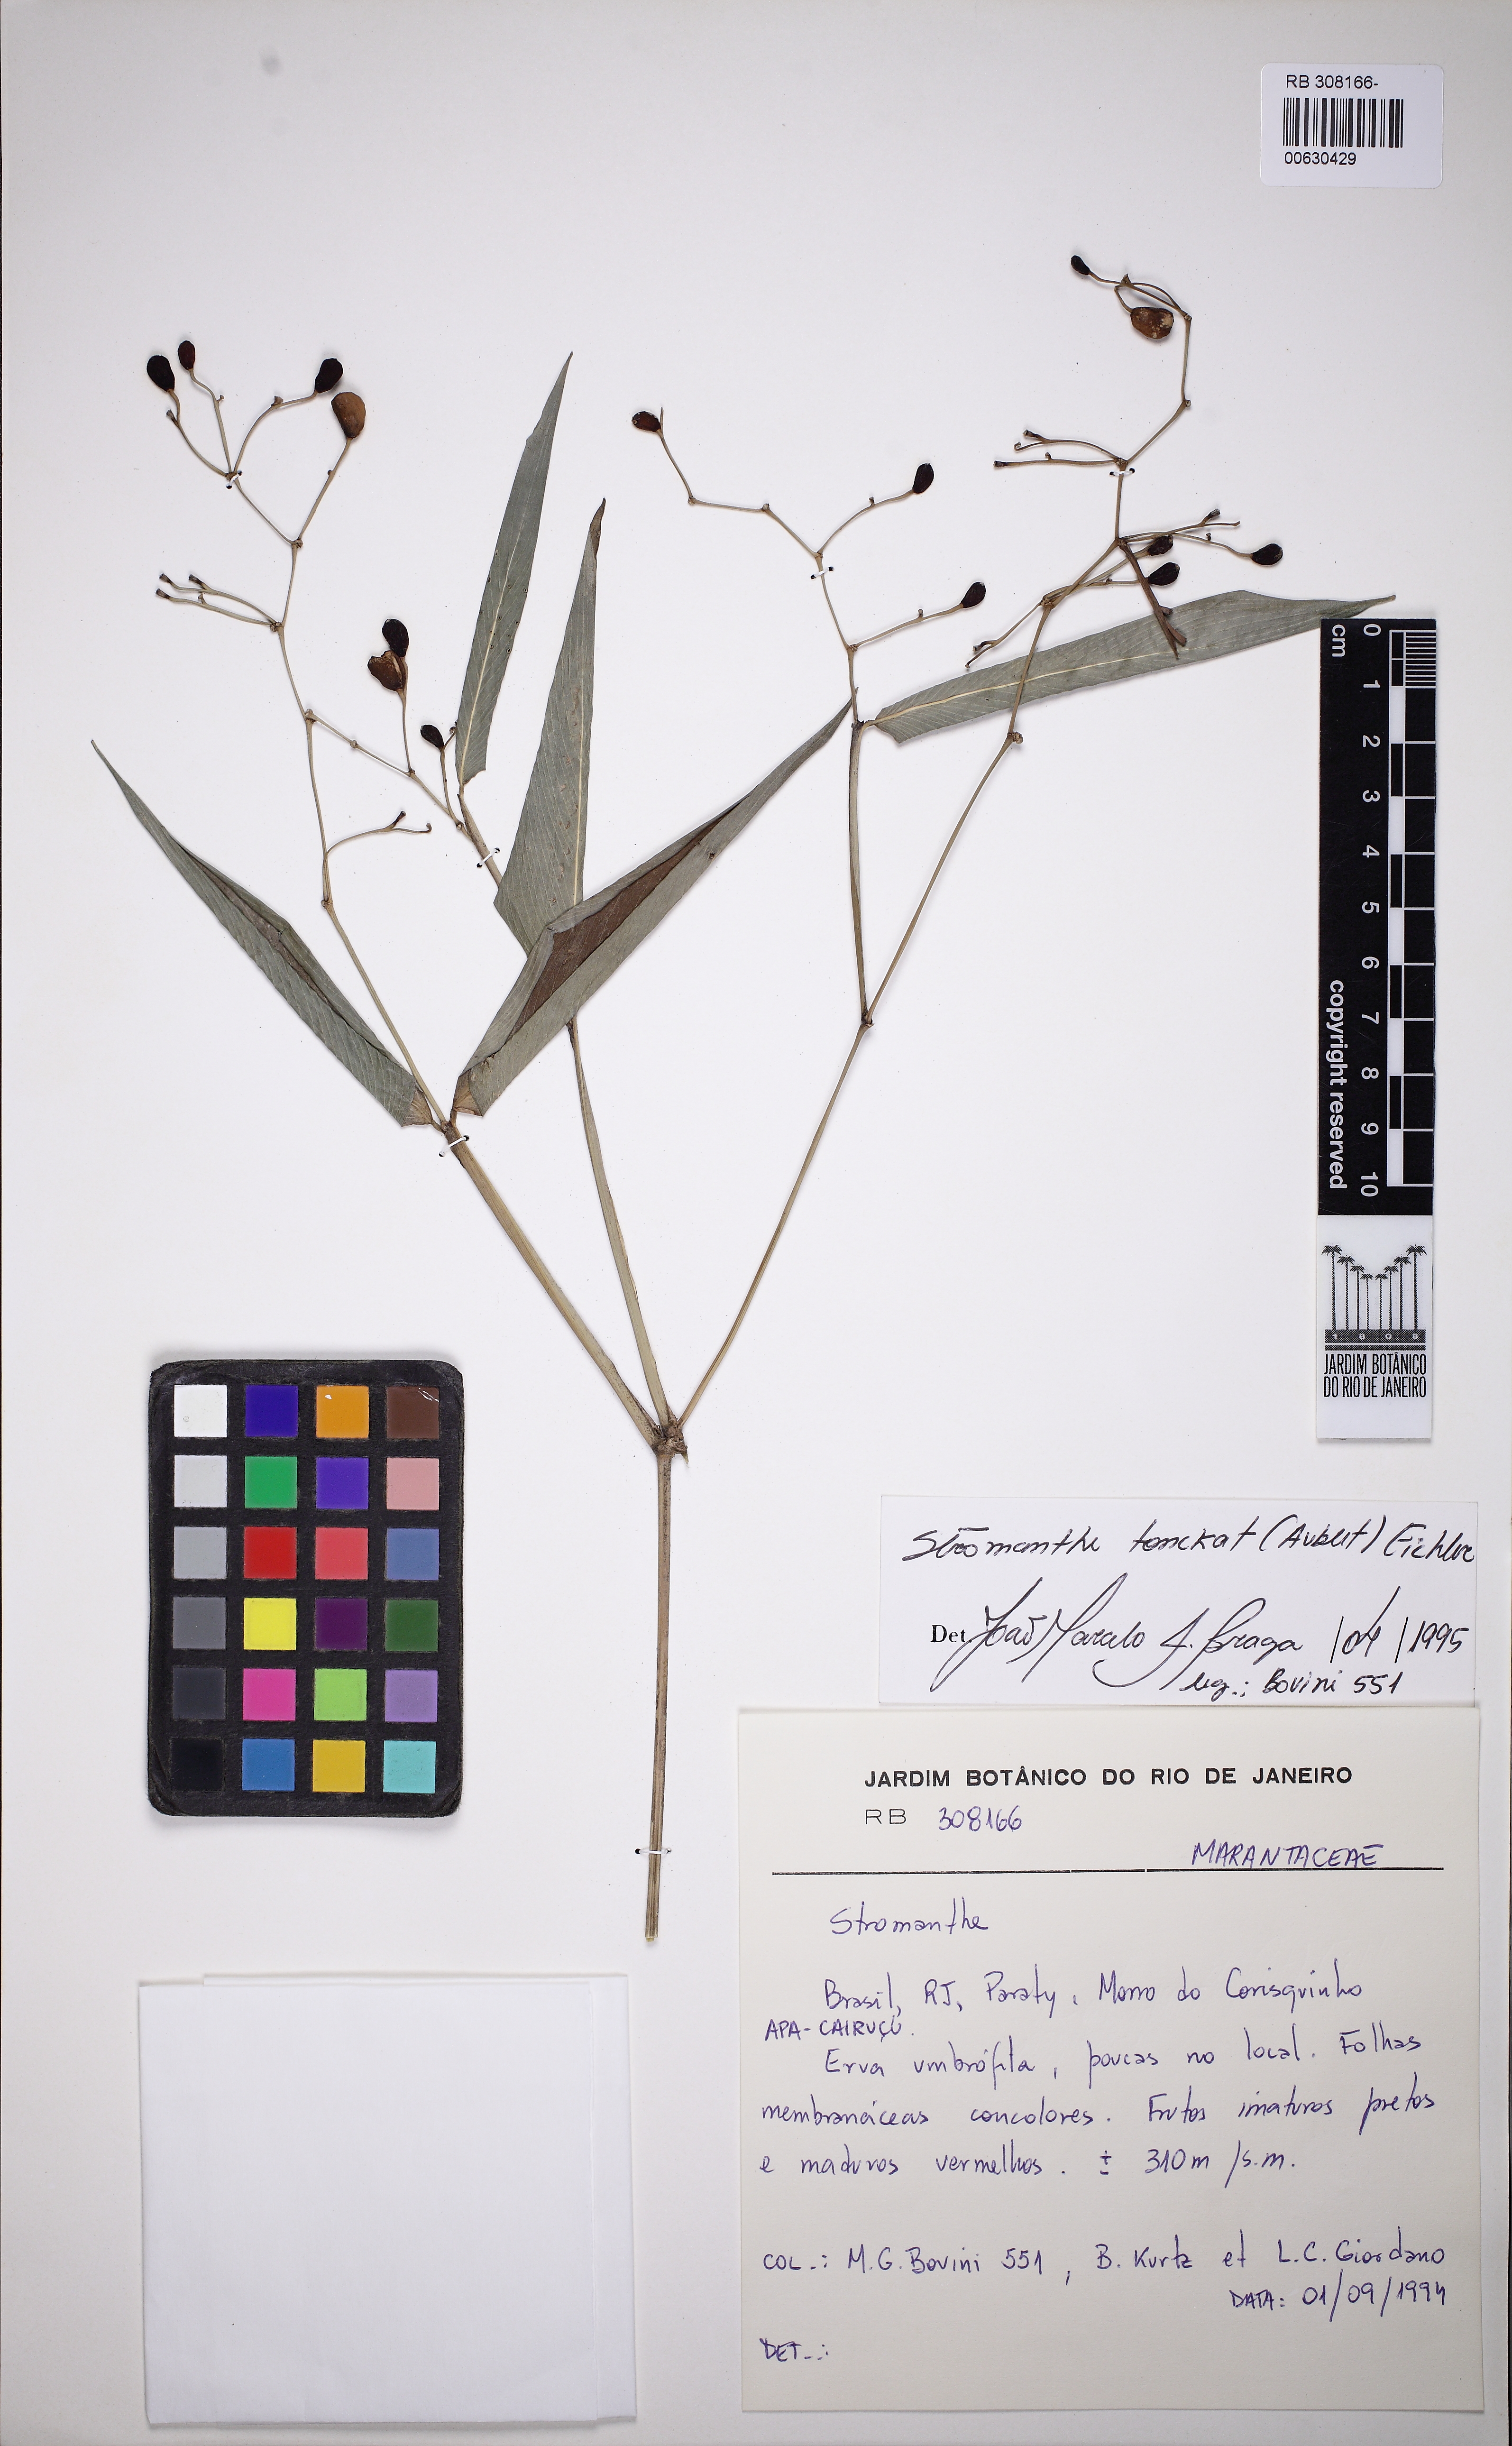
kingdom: Plantae
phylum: Tracheophyta
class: Liliopsida
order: Zingiberales
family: Marantaceae
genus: Stromanthe
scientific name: Stromanthe tonckat
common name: Stromanthe
